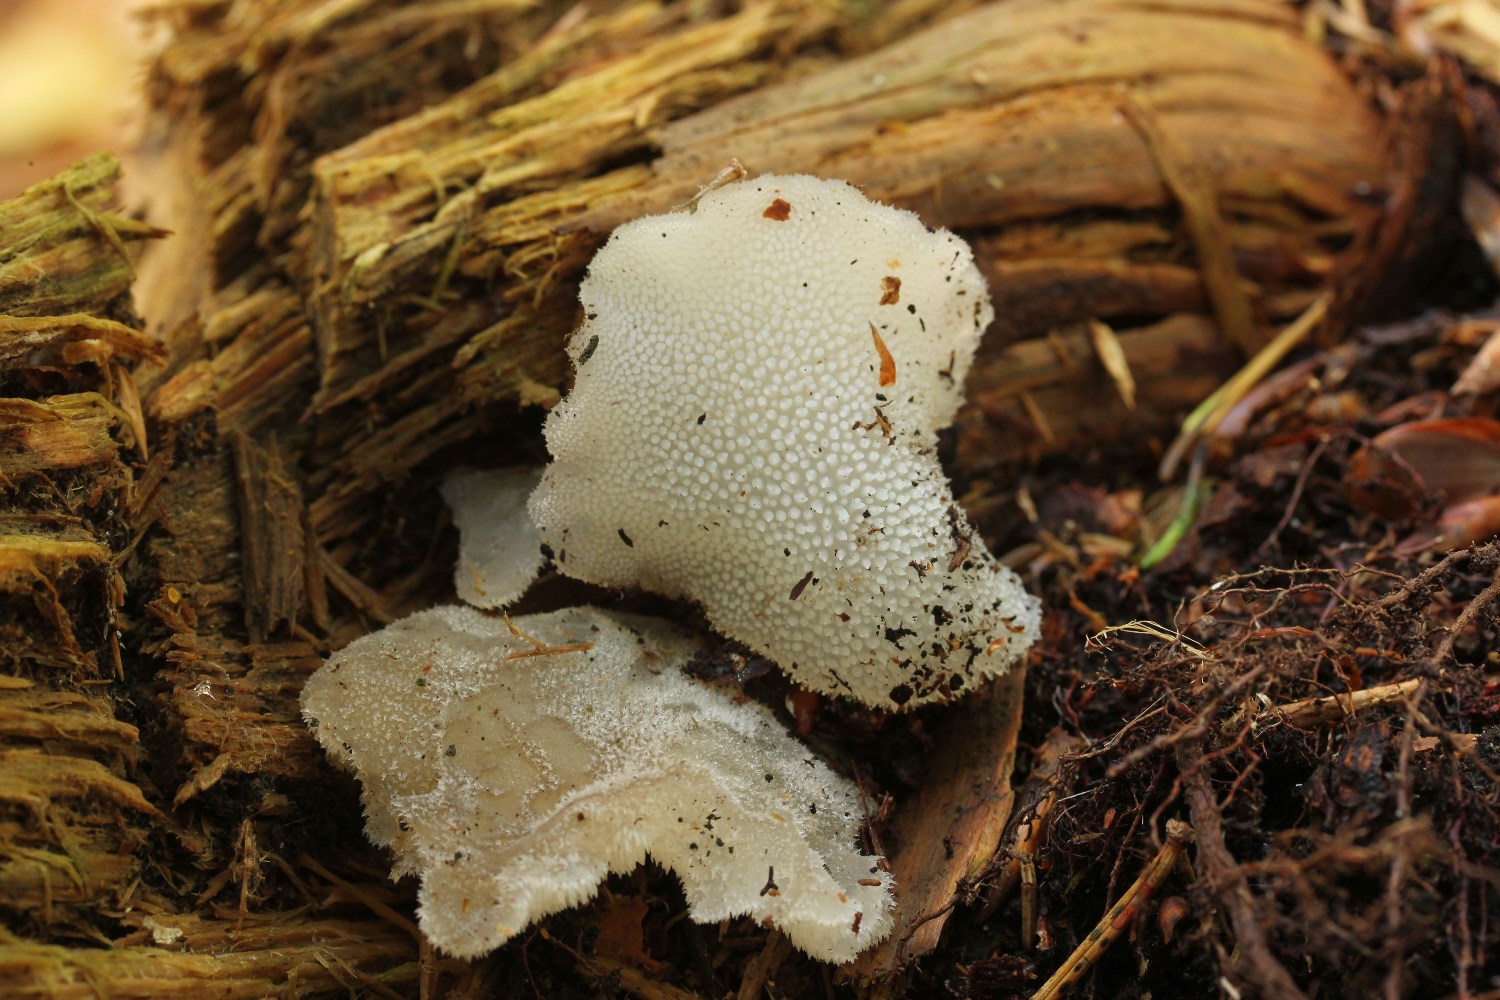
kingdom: Fungi
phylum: Basidiomycota
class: Agaricomycetes
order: Auriculariales
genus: Pseudohydnum
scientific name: Pseudohydnum gelatinosum
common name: bævretand
